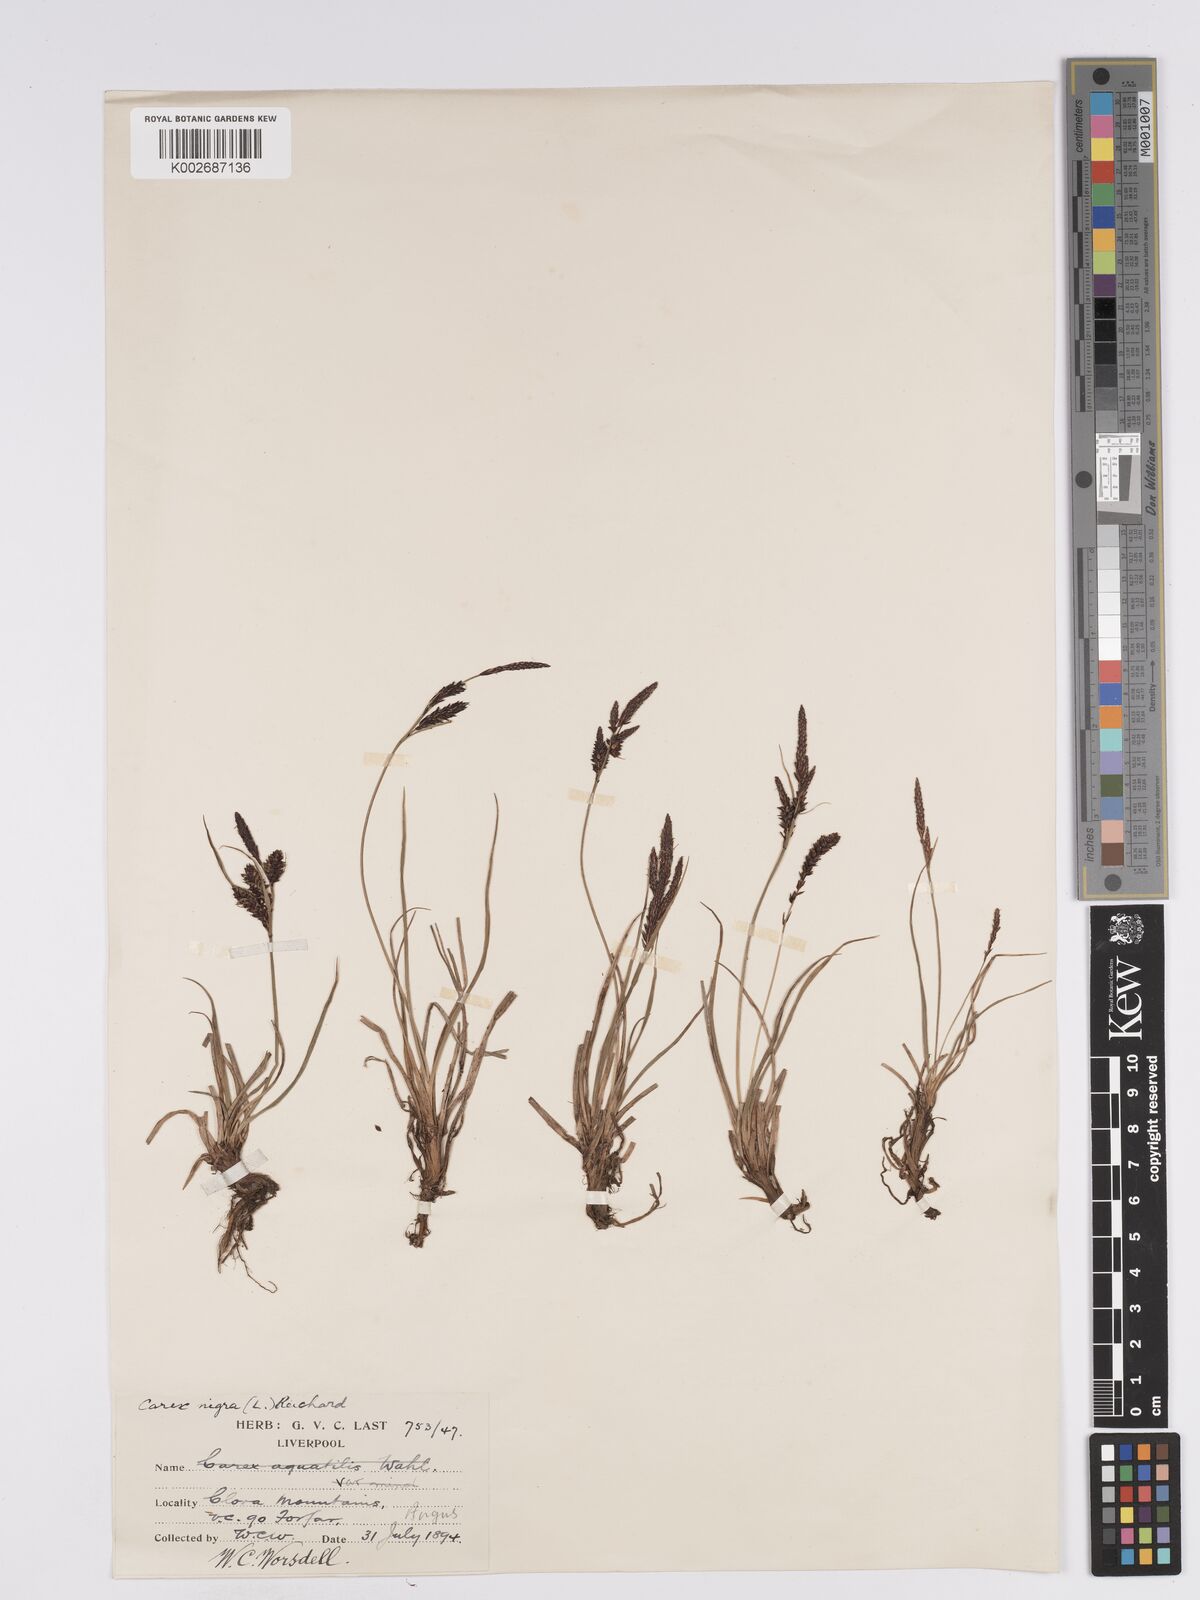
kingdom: Plantae
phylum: Tracheophyta
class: Liliopsida
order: Poales
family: Cyperaceae
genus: Carex
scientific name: Carex nigra
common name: Common sedge
